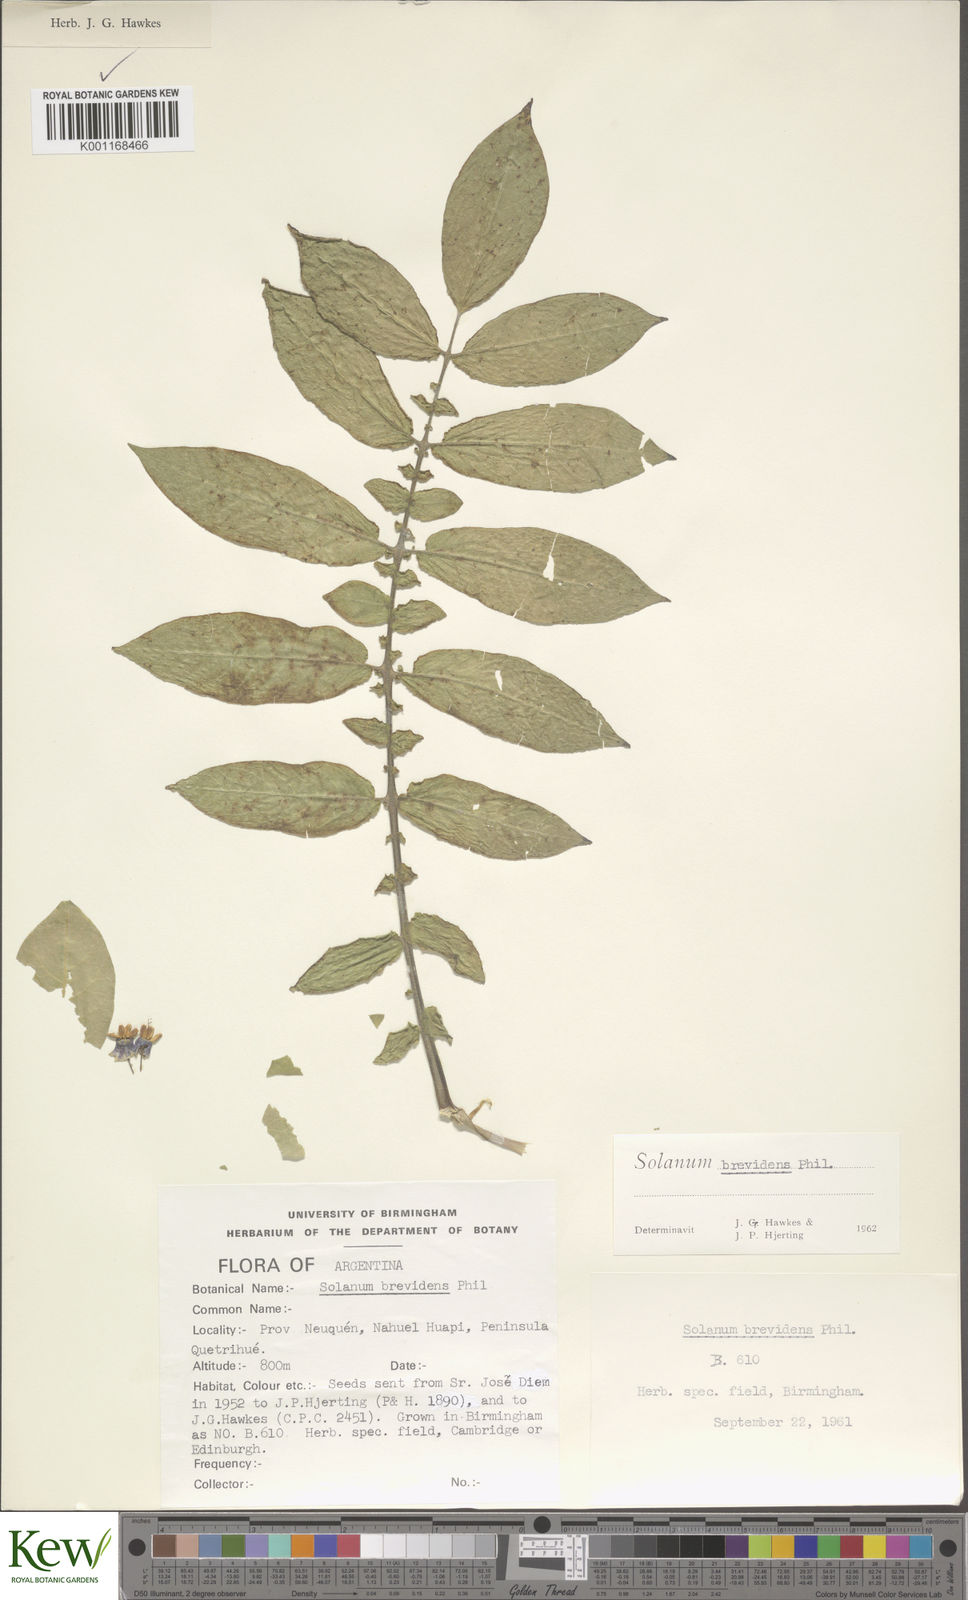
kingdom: Plantae
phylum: Tracheophyta
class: Magnoliopsida
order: Solanales
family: Solanaceae
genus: Solanum
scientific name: Solanum palustre
